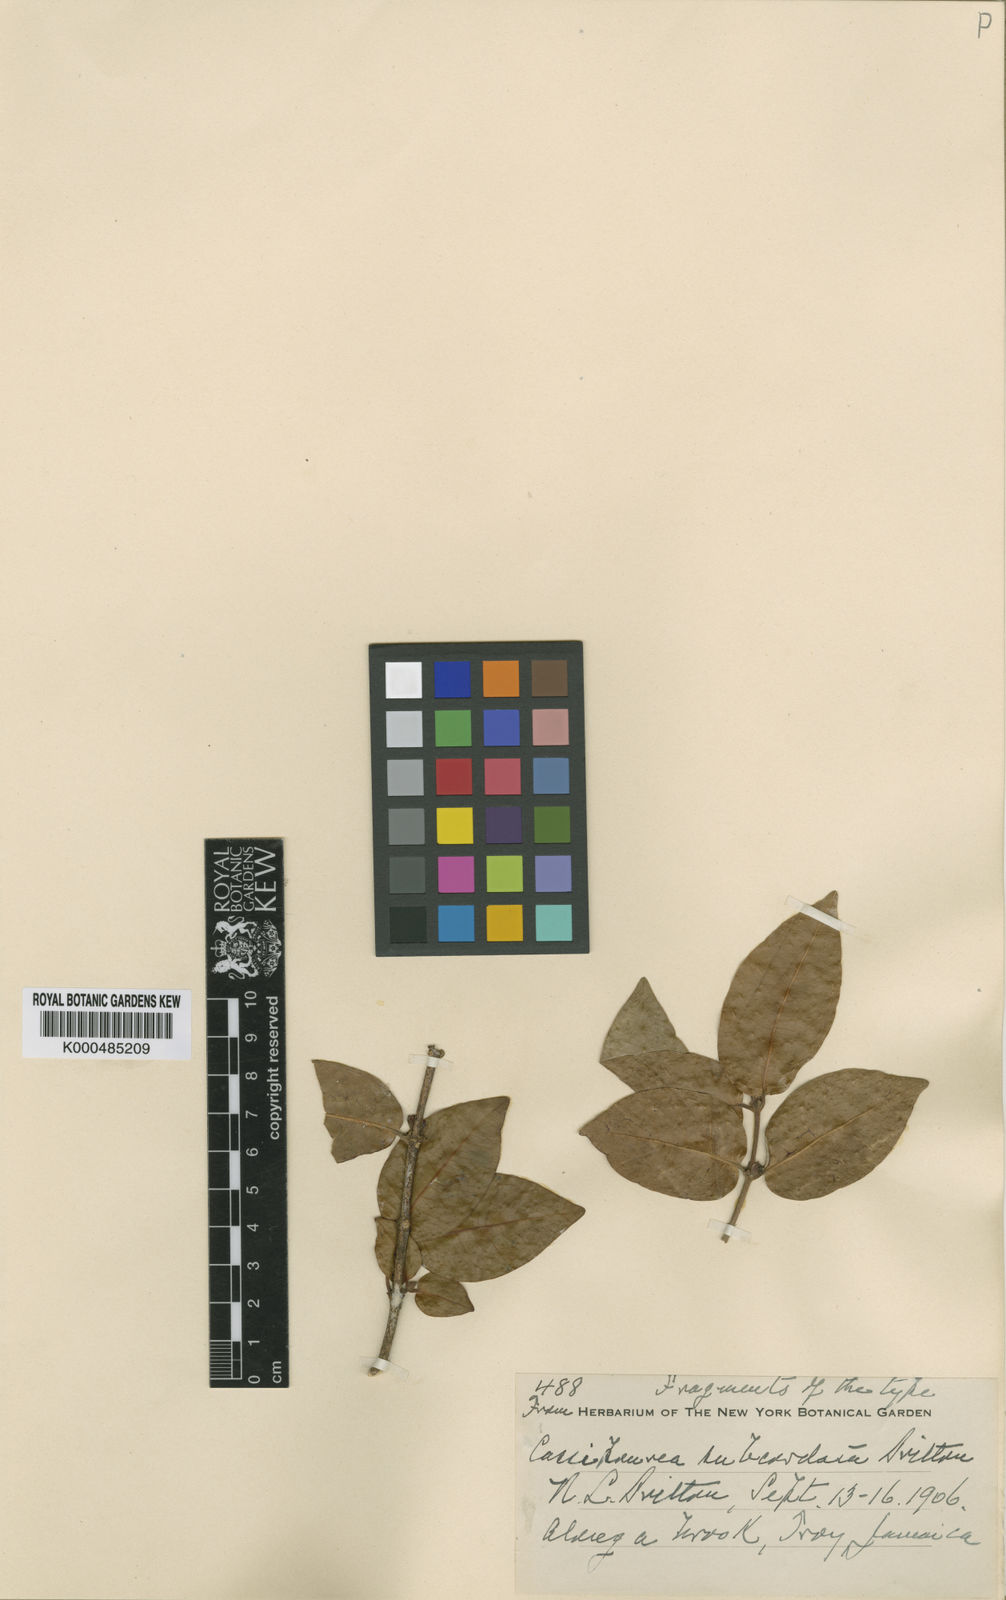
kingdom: Plantae
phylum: Tracheophyta
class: Magnoliopsida
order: Malpighiales
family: Rhizophoraceae
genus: Cassipourea
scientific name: Cassipourea subcordata
